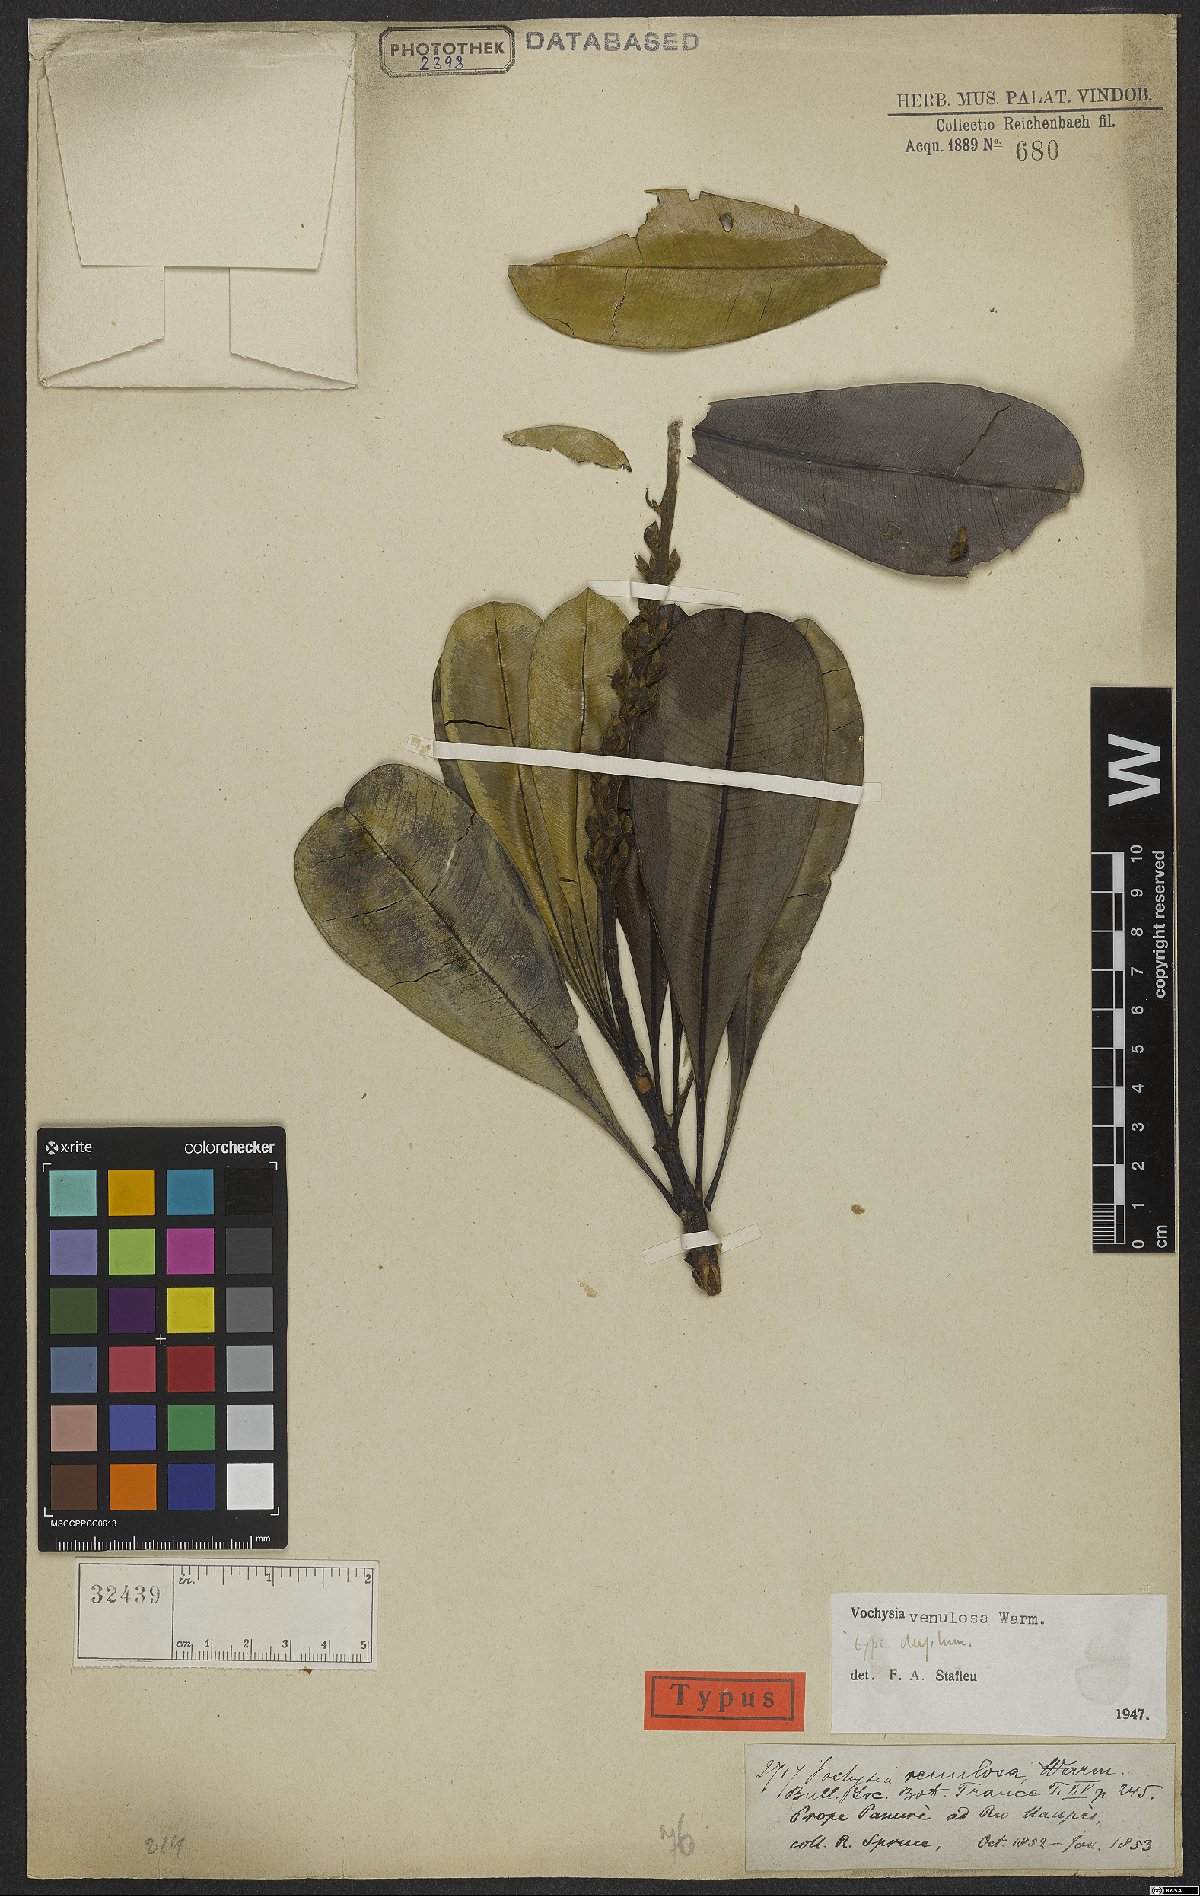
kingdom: Plantae
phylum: Tracheophyta
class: Magnoliopsida
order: Myrtales
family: Vochysiaceae
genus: Vochysia
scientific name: Vochysia venulosa
